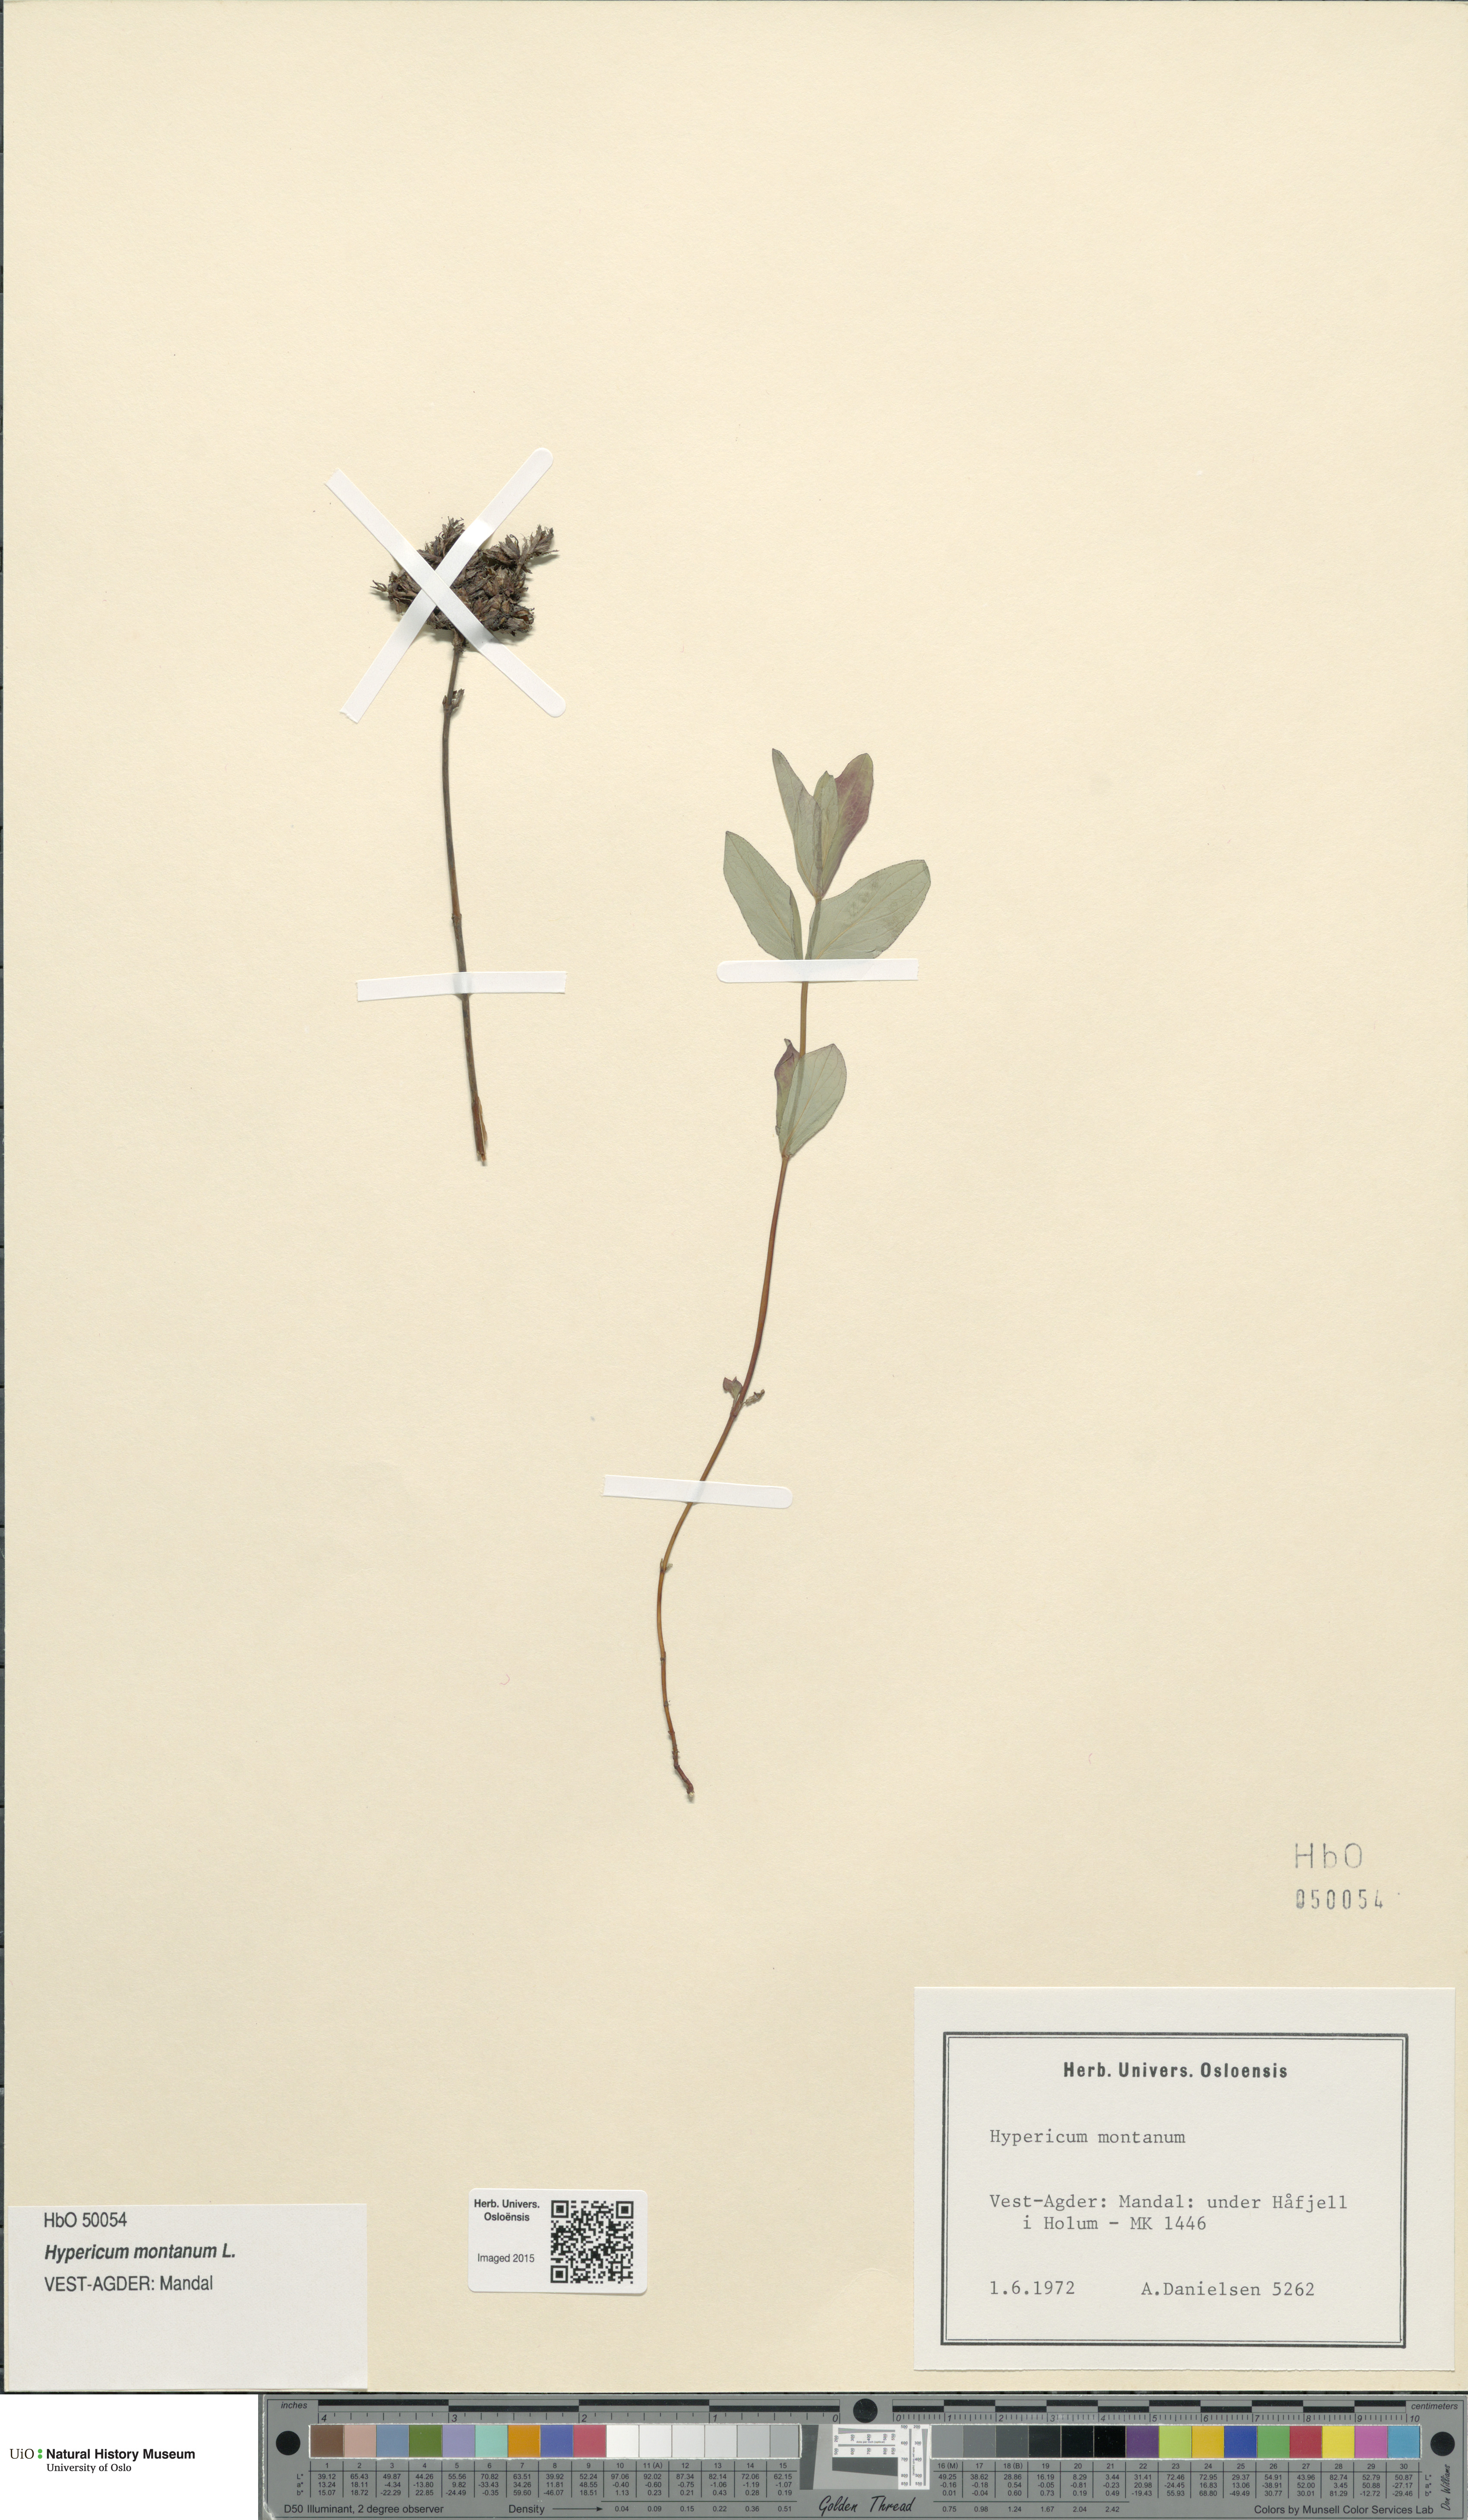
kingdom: Plantae
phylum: Tracheophyta
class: Magnoliopsida
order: Malpighiales
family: Hypericaceae
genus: Hypericum
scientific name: Hypericum montanum
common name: Pale st. john's-wort
